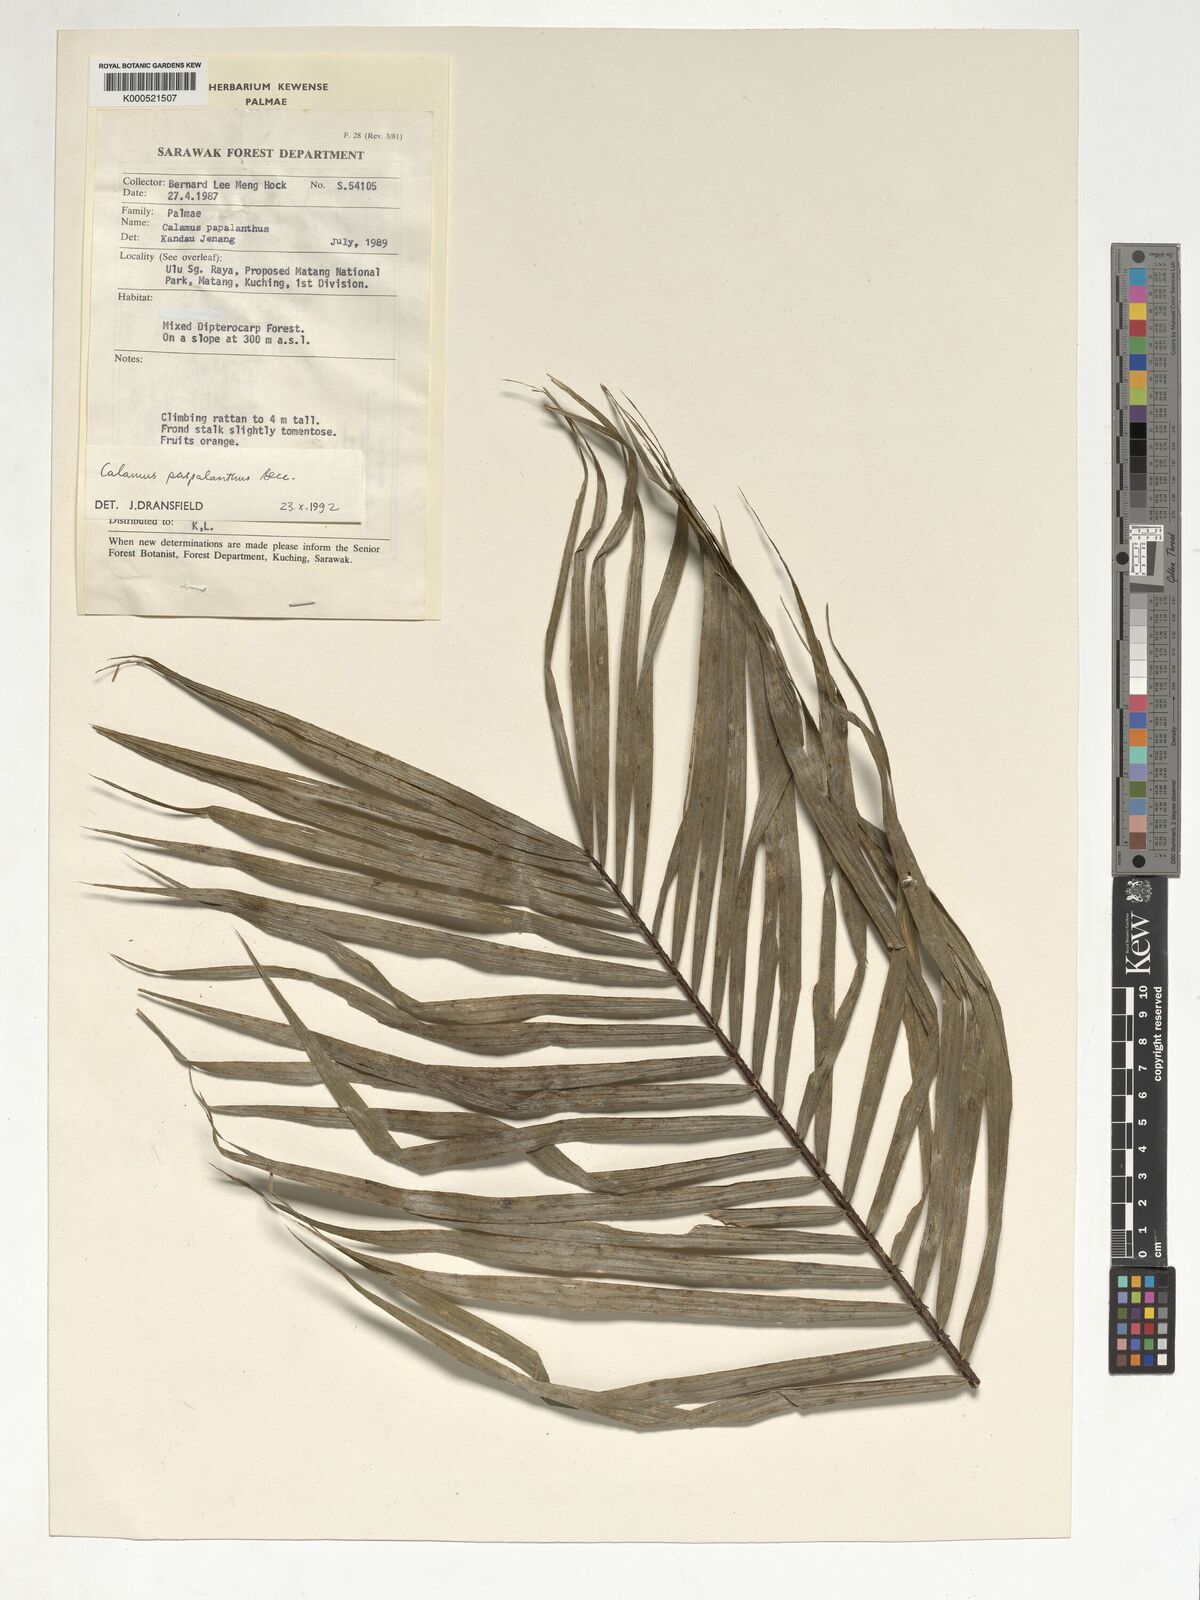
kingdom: Plantae
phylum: Tracheophyta
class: Liliopsida
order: Arecales
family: Arecaceae
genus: Calamus
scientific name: Calamus paspalanthus
